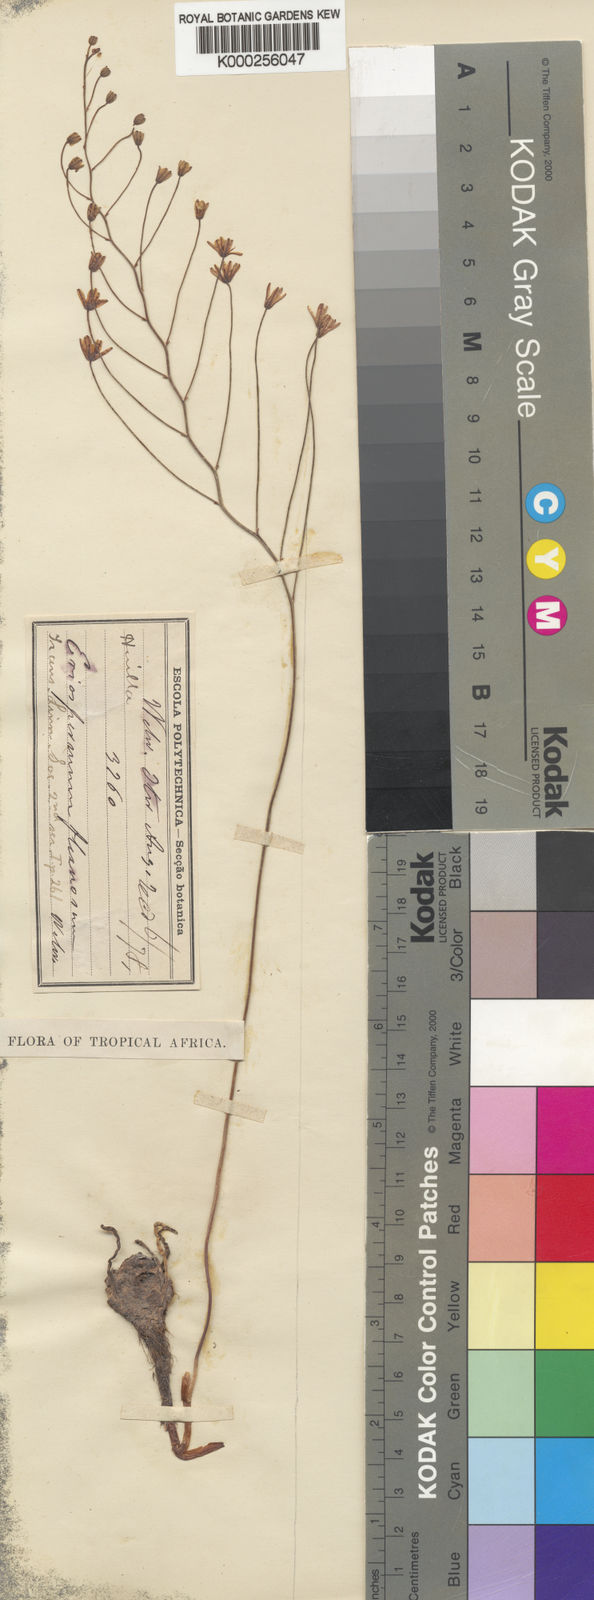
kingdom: Plantae
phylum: Tracheophyta
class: Liliopsida
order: Asparagales
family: Asparagaceae
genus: Eriospermum
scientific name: Eriospermum flexuosum
